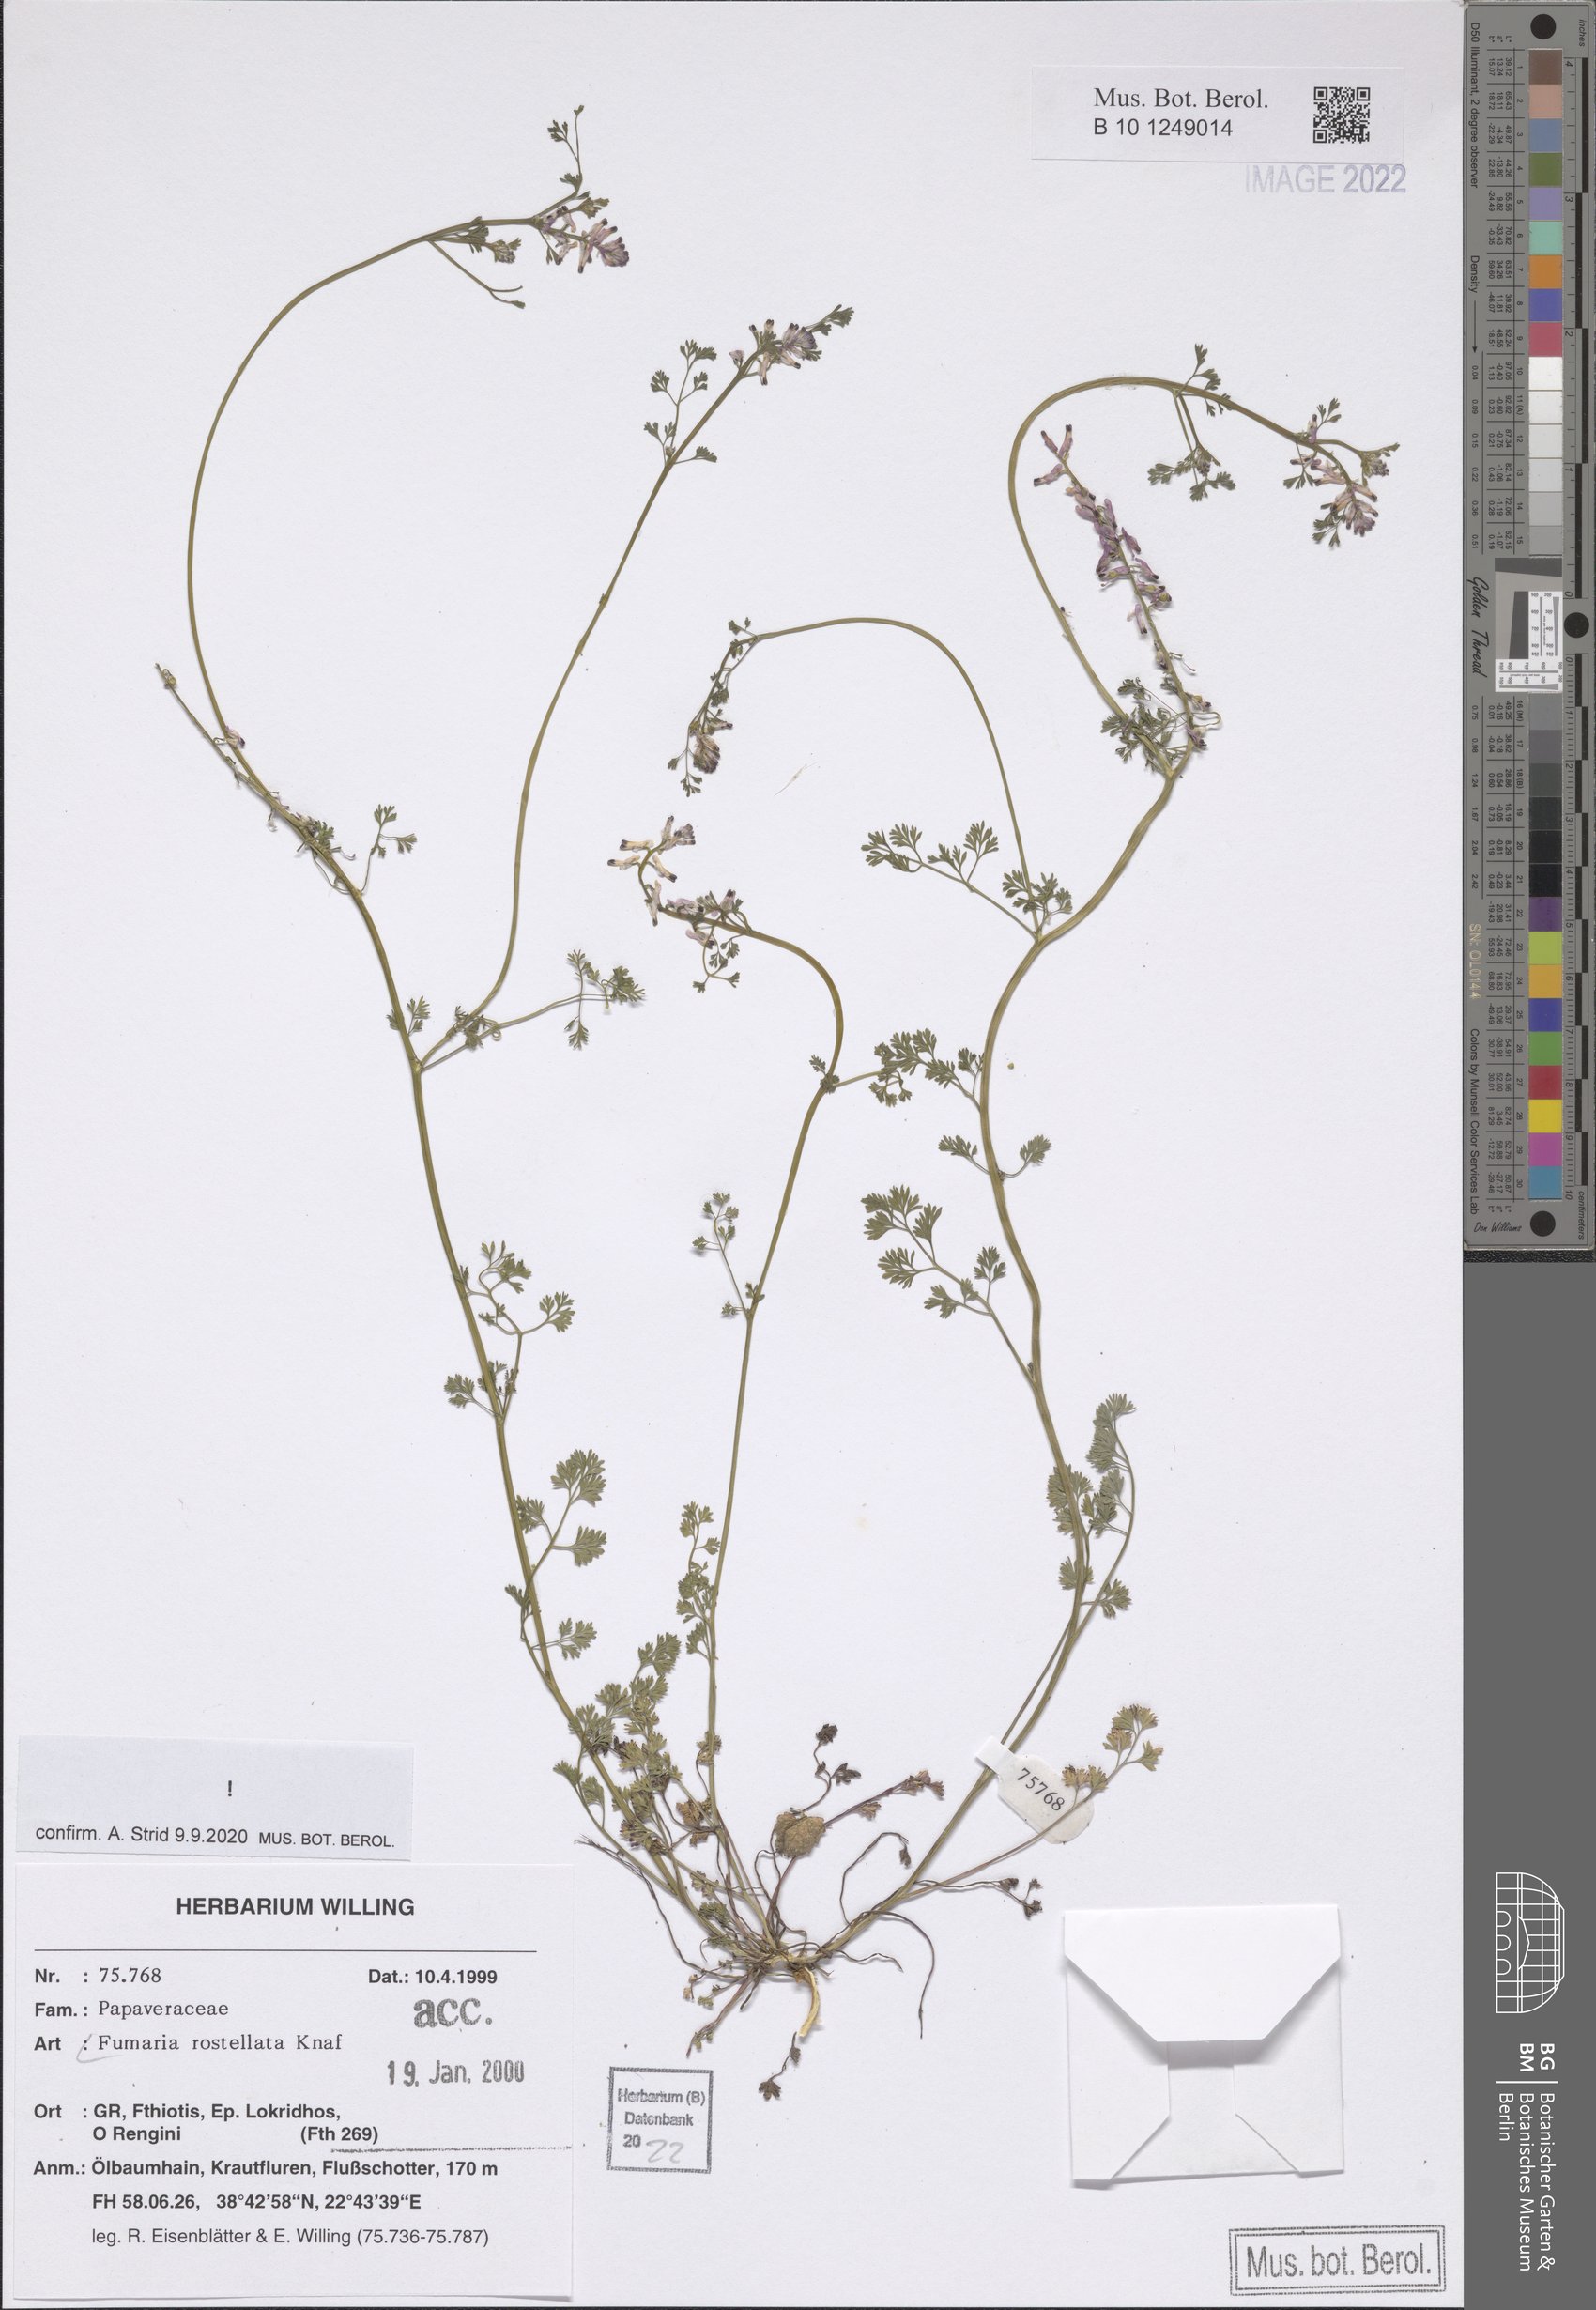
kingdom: Plantae
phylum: Tracheophyta
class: Magnoliopsida
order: Ranunculales
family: Papaveraceae
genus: Fumaria
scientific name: Fumaria rostellata
